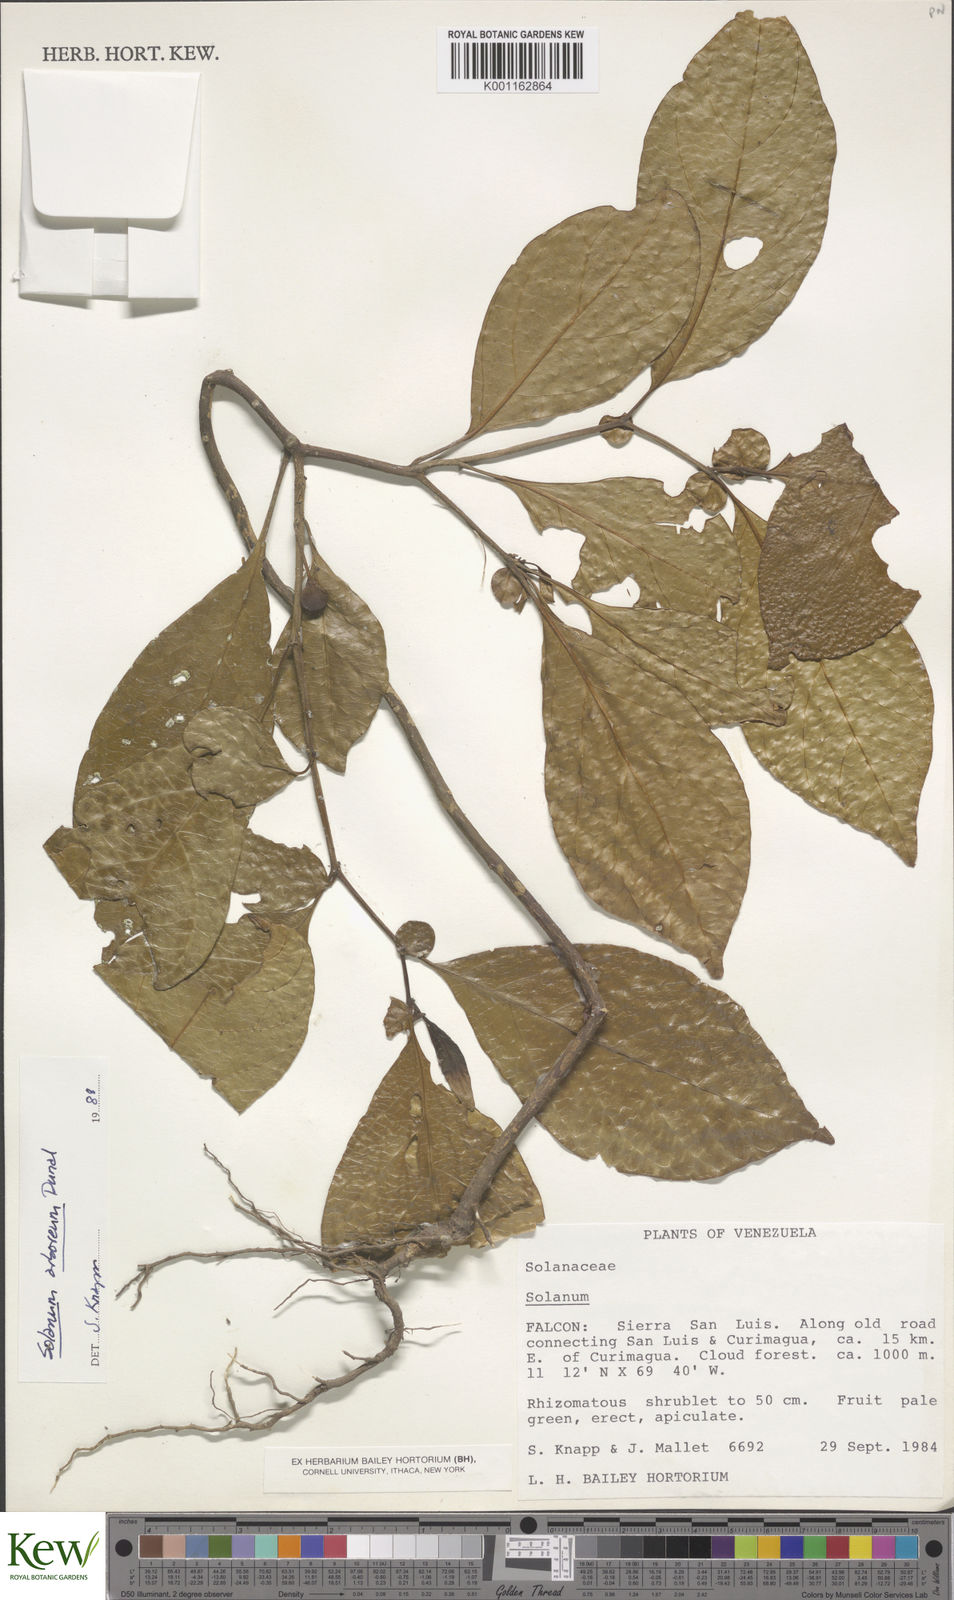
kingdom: Plantae
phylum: Tracheophyta
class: Magnoliopsida
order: Solanales
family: Solanaceae
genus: Solanum
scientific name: Solanum arboreum
